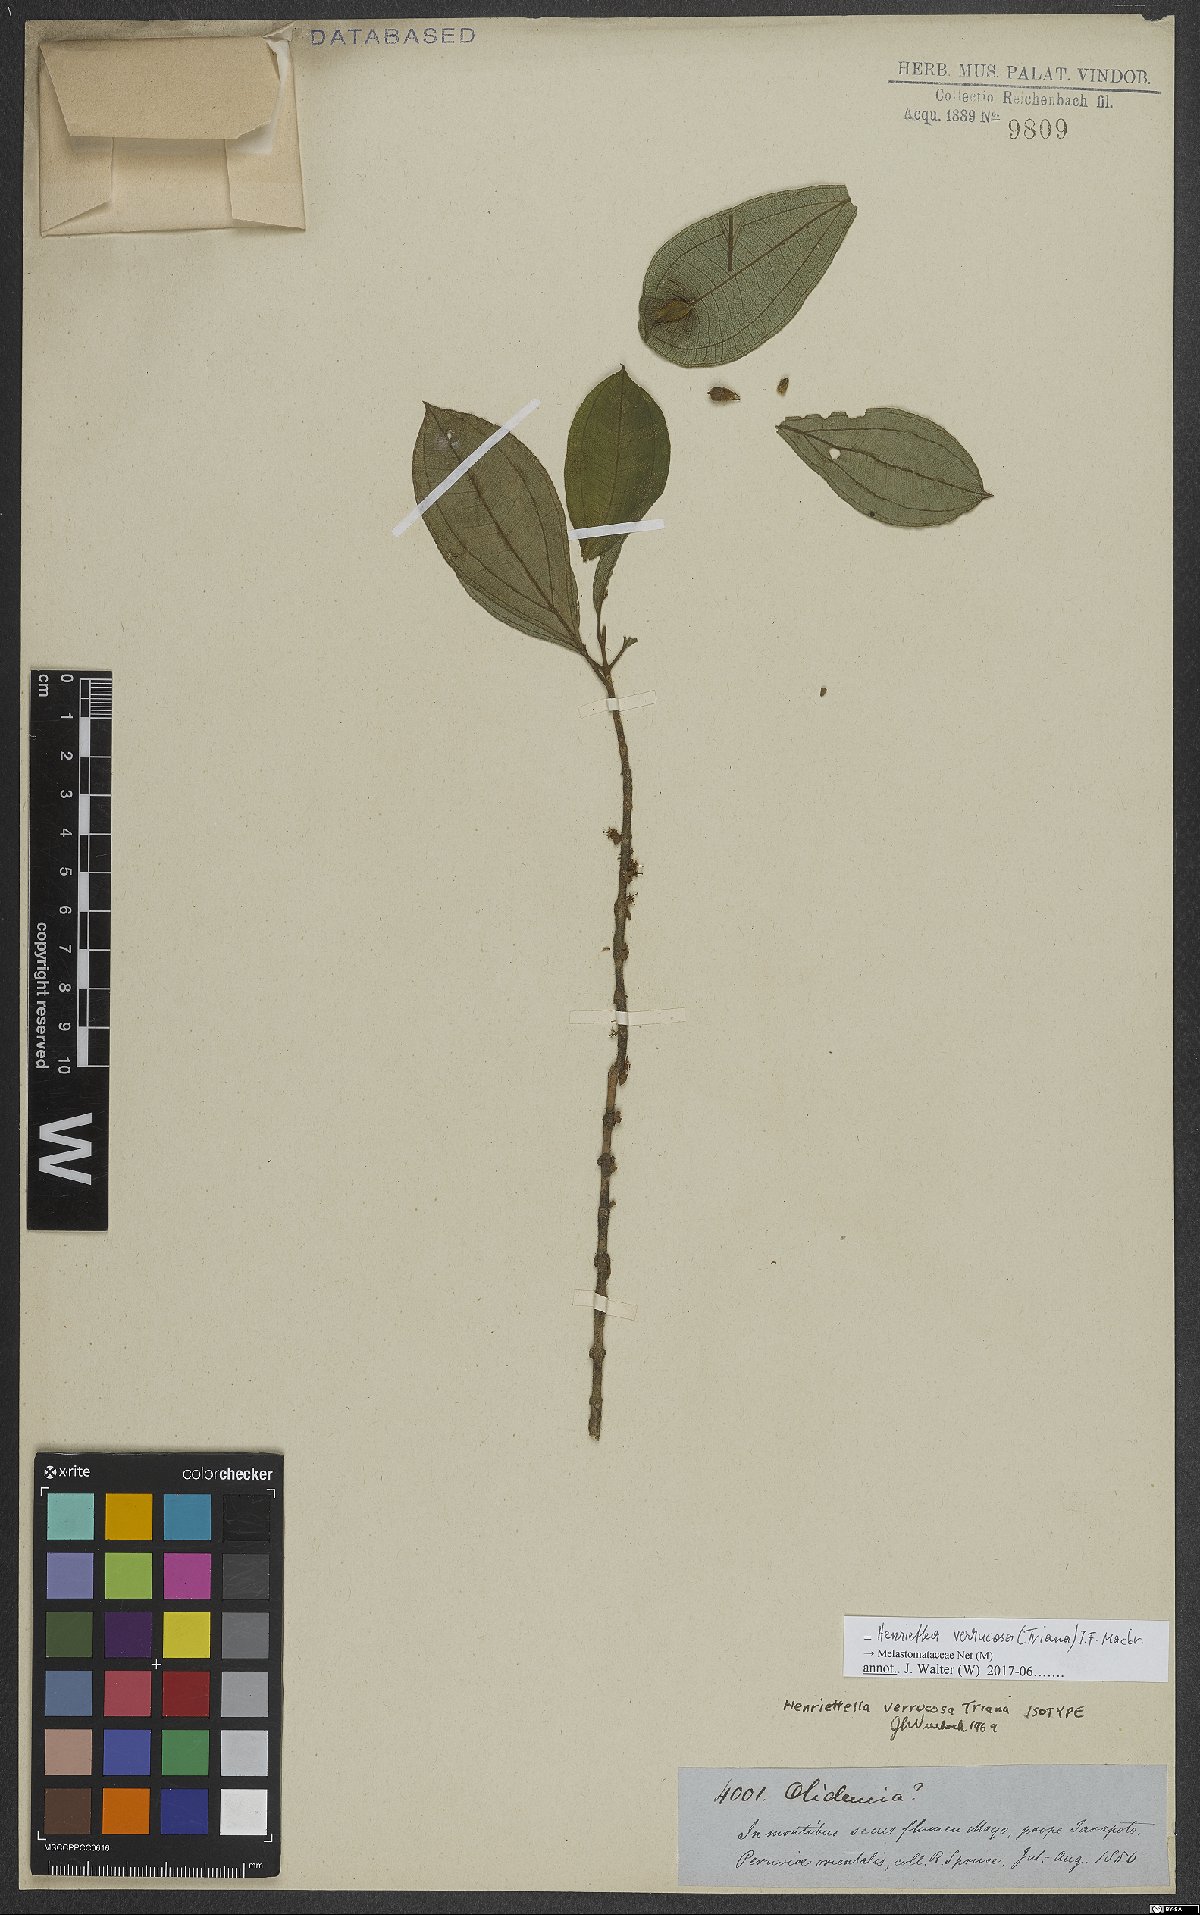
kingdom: Plantae
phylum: Tracheophyta
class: Magnoliopsida
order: Myrtales
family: Melastomataceae
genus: Henriettea
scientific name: Henriettea verrucosa
